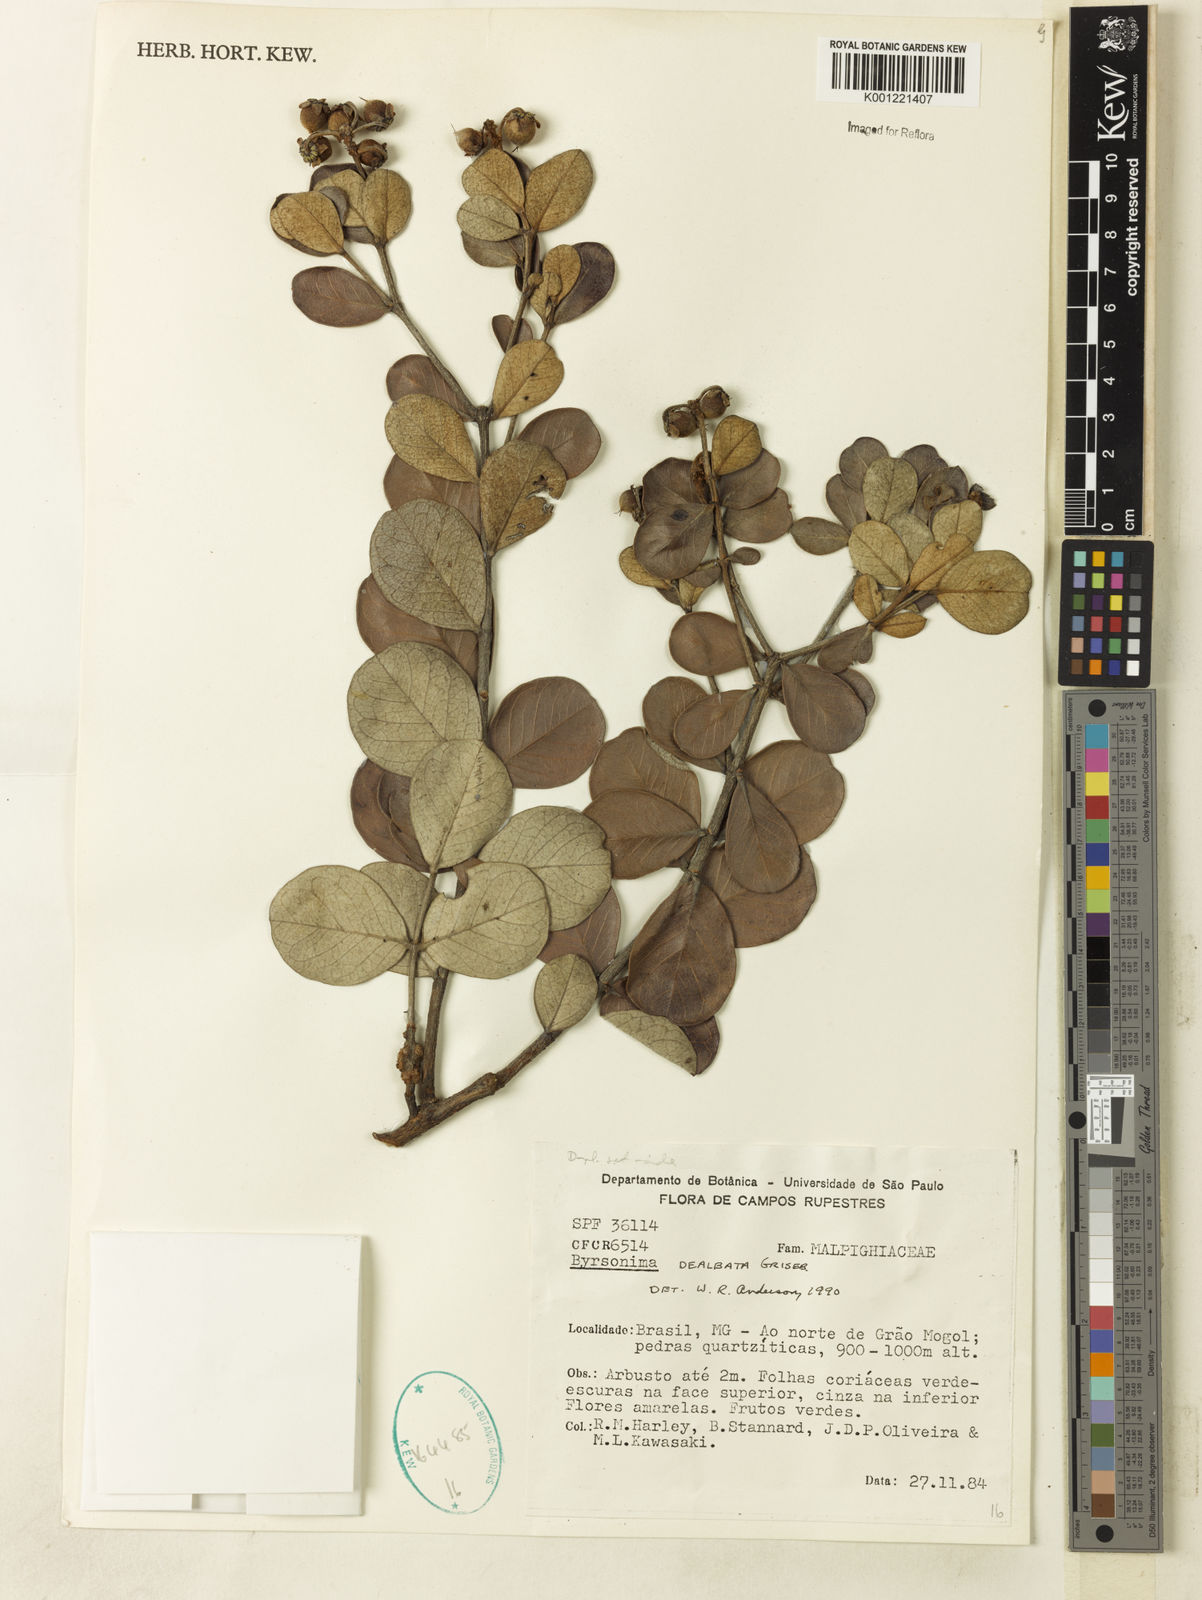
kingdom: Plantae
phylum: Tracheophyta
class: Magnoliopsida
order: Malpighiales
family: Malpighiaceae
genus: Byrsonima
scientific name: Byrsonima dealbata
